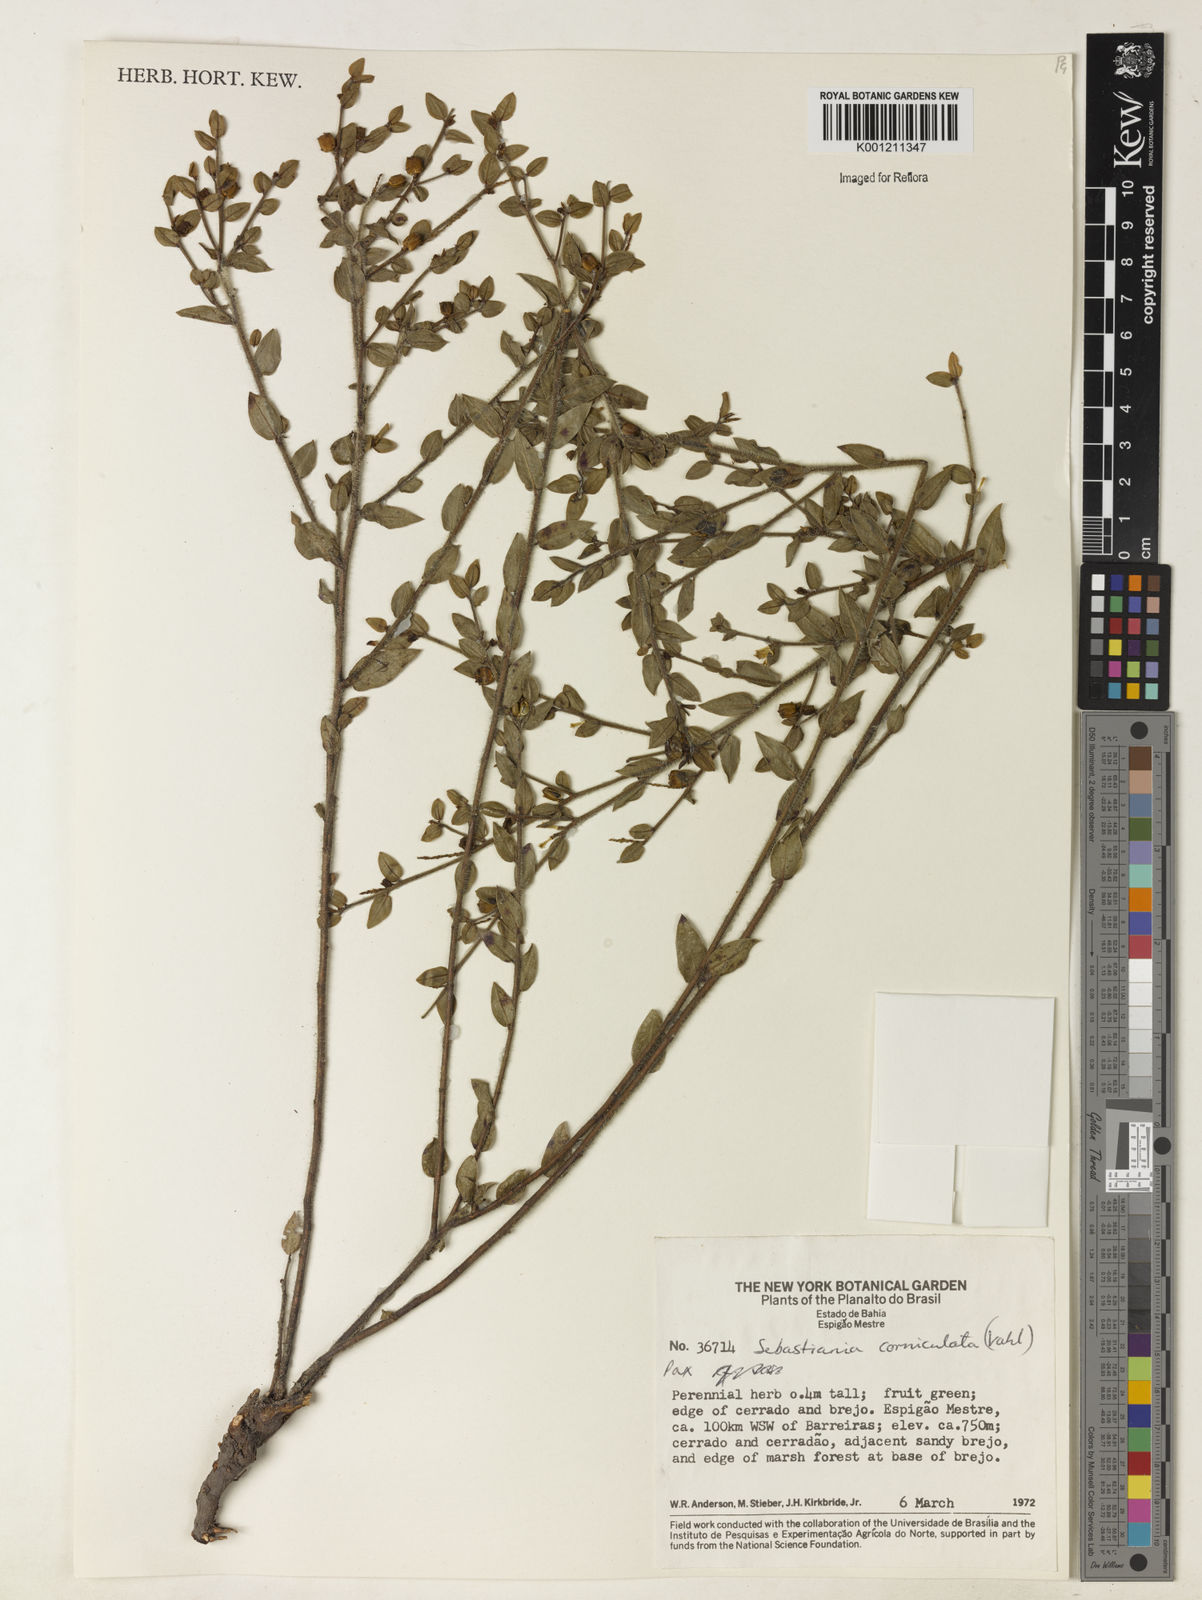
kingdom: Plantae
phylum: Tracheophyta
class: Magnoliopsida
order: Malpighiales
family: Euphorbiaceae
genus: Microstachys
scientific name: Microstachys corniculata
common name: Hato tejas
